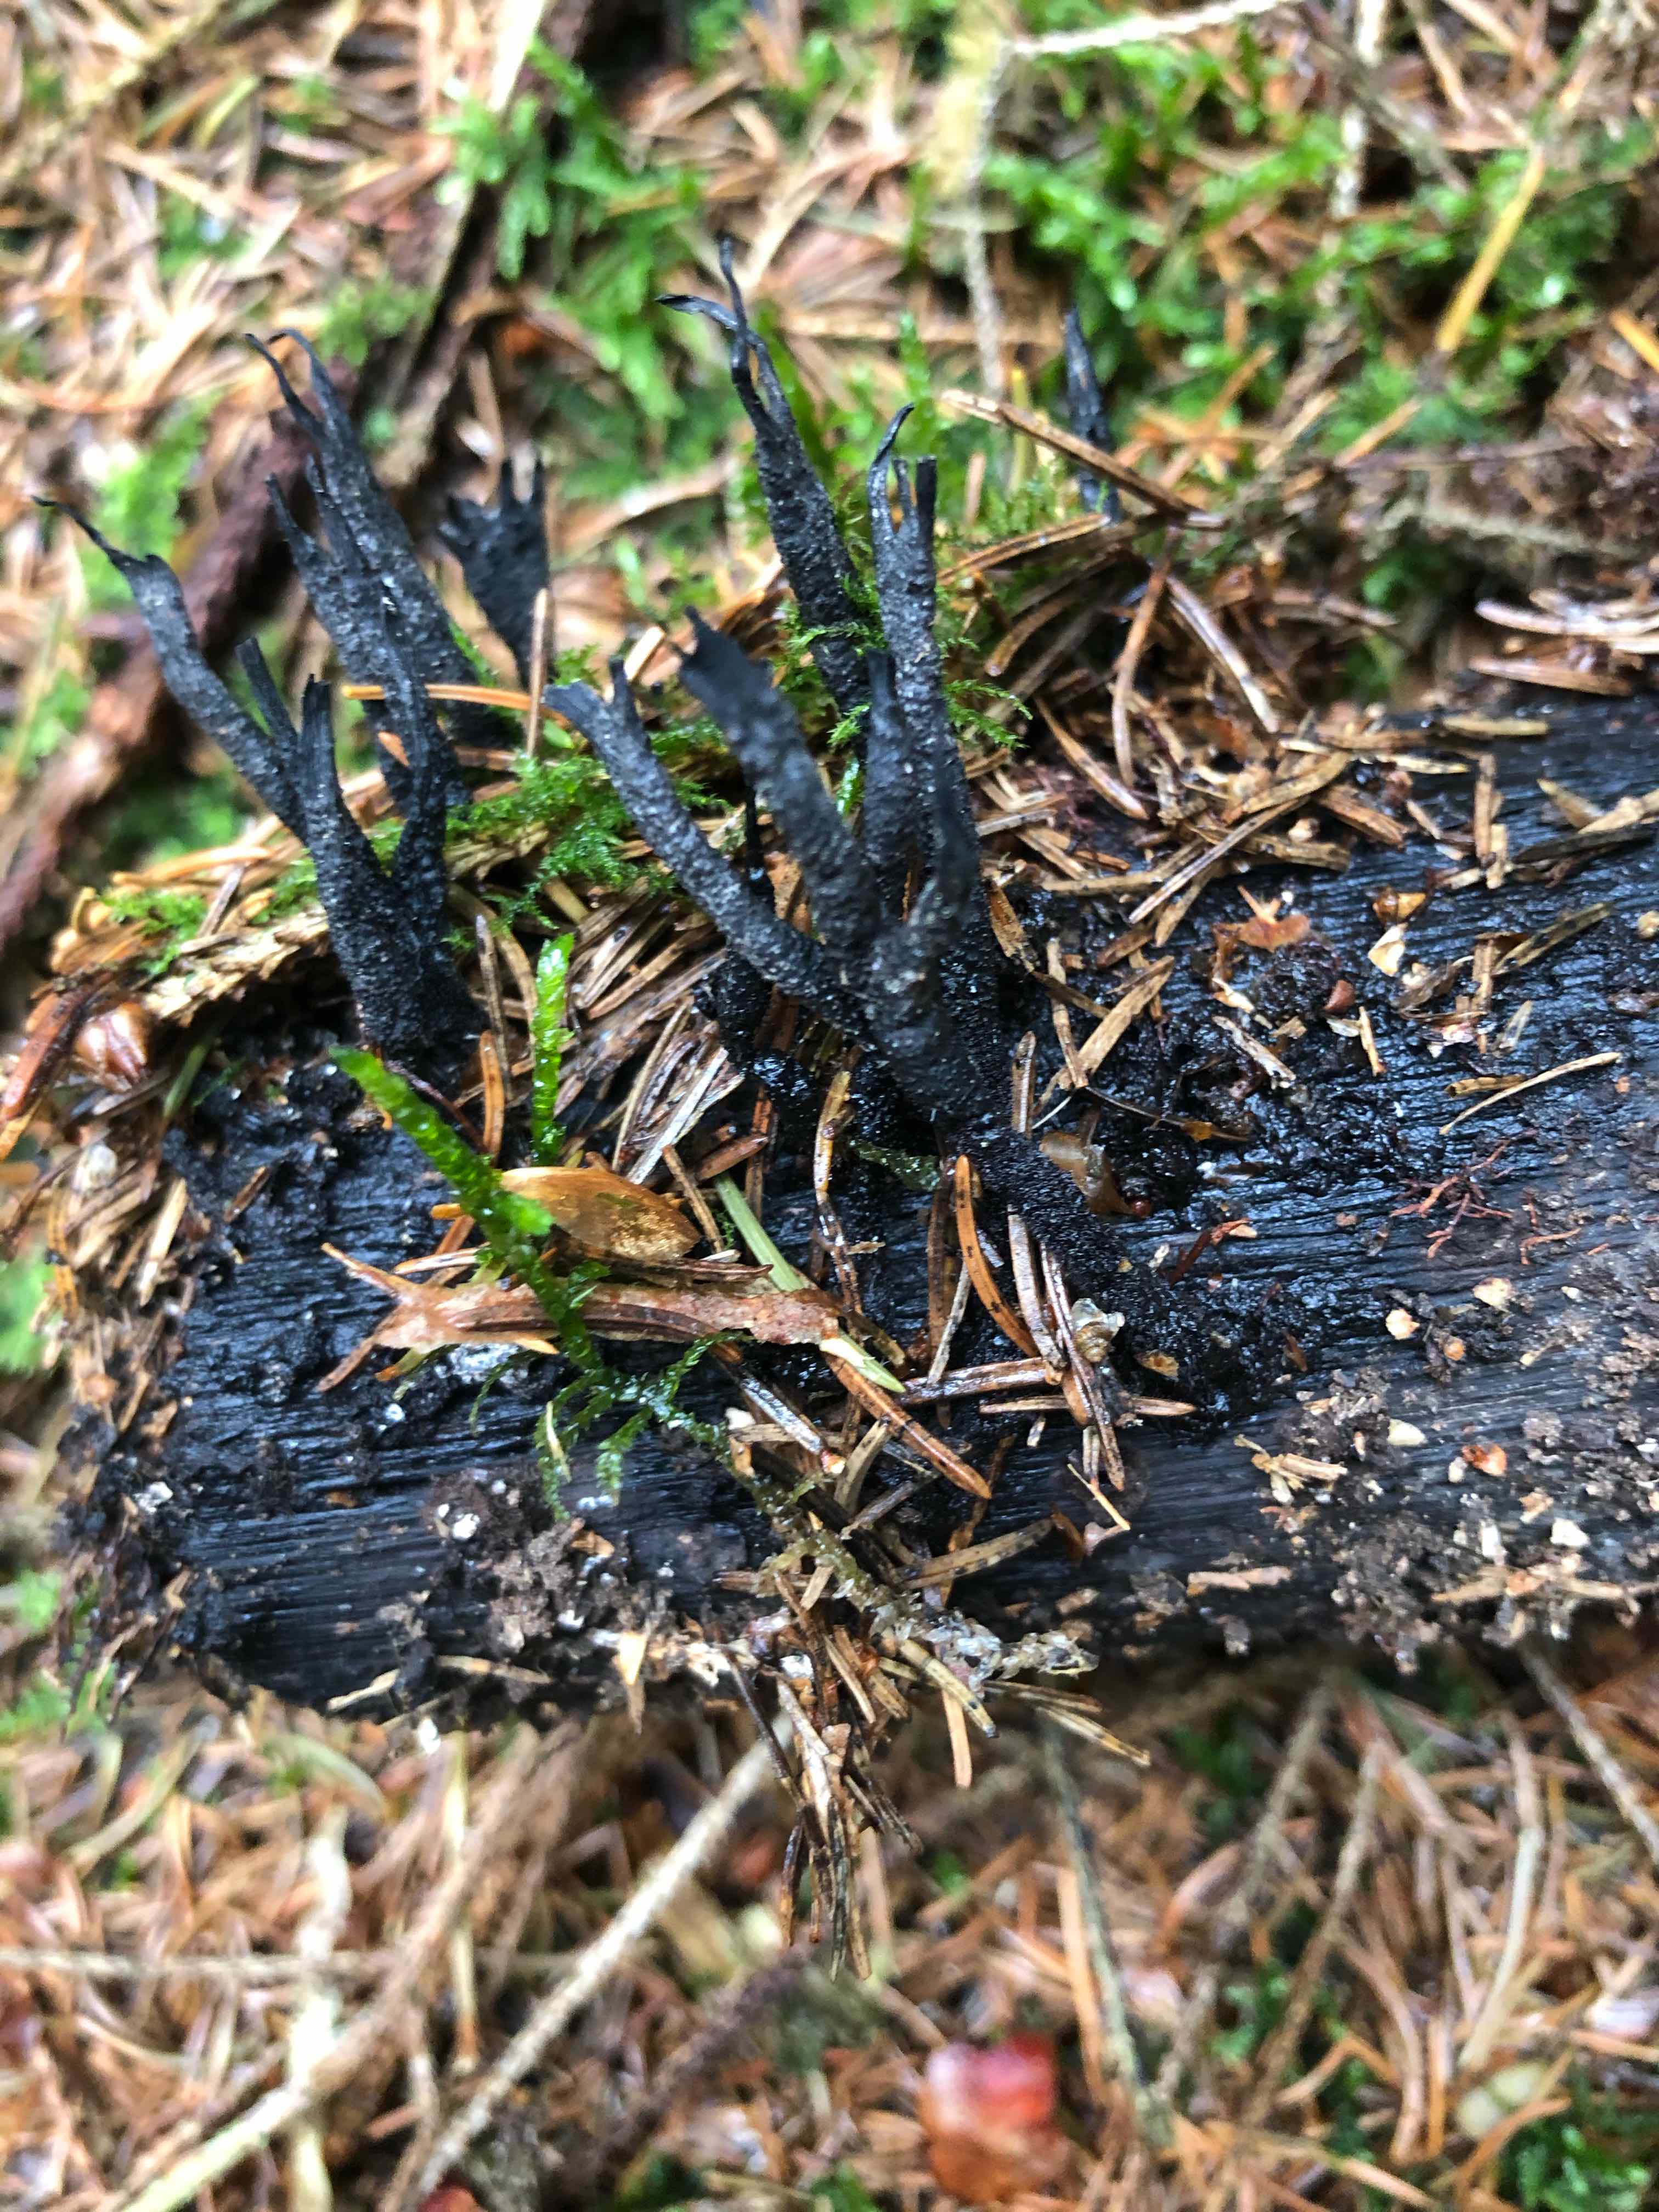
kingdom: Fungi
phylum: Ascomycota
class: Sordariomycetes
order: Xylariales
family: Xylariaceae
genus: Xylaria
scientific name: Xylaria hypoxylon
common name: grenet stødsvamp
